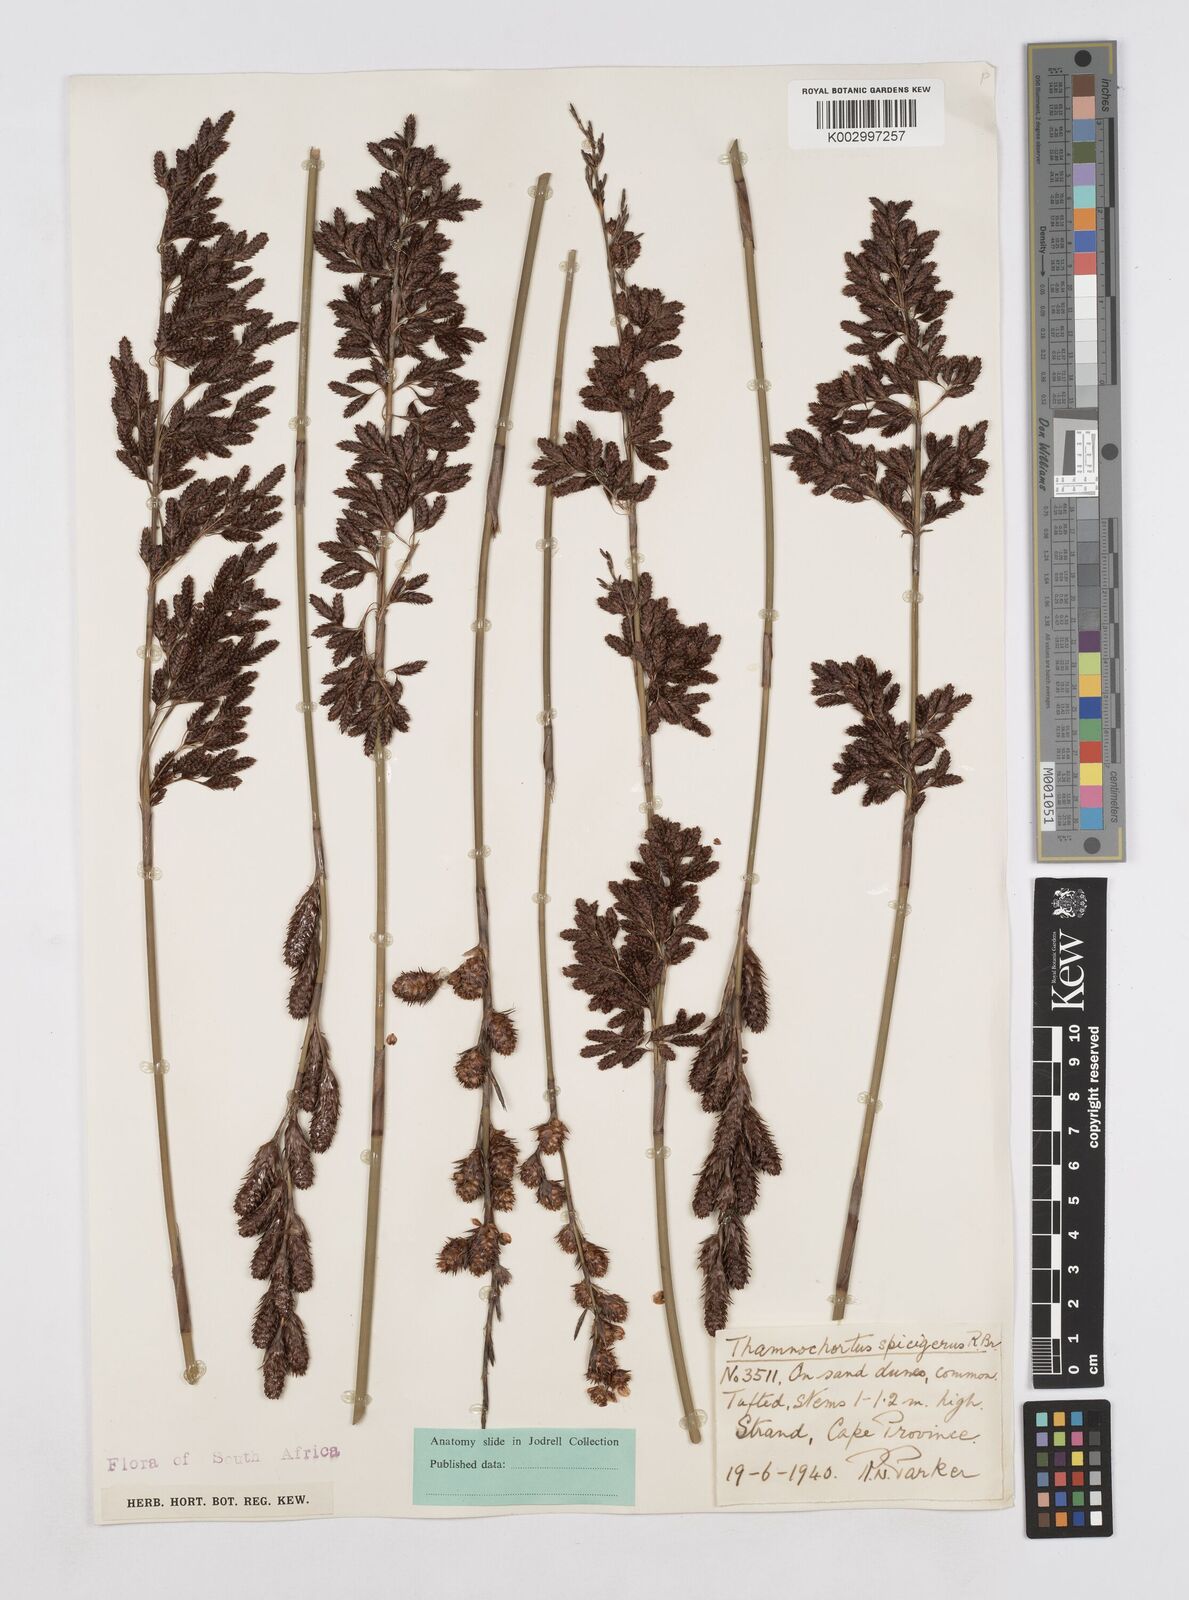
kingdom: Plantae
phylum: Tracheophyta
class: Liliopsida
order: Poales
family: Restionaceae
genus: Thamnochortus
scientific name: Thamnochortus spicigerus
